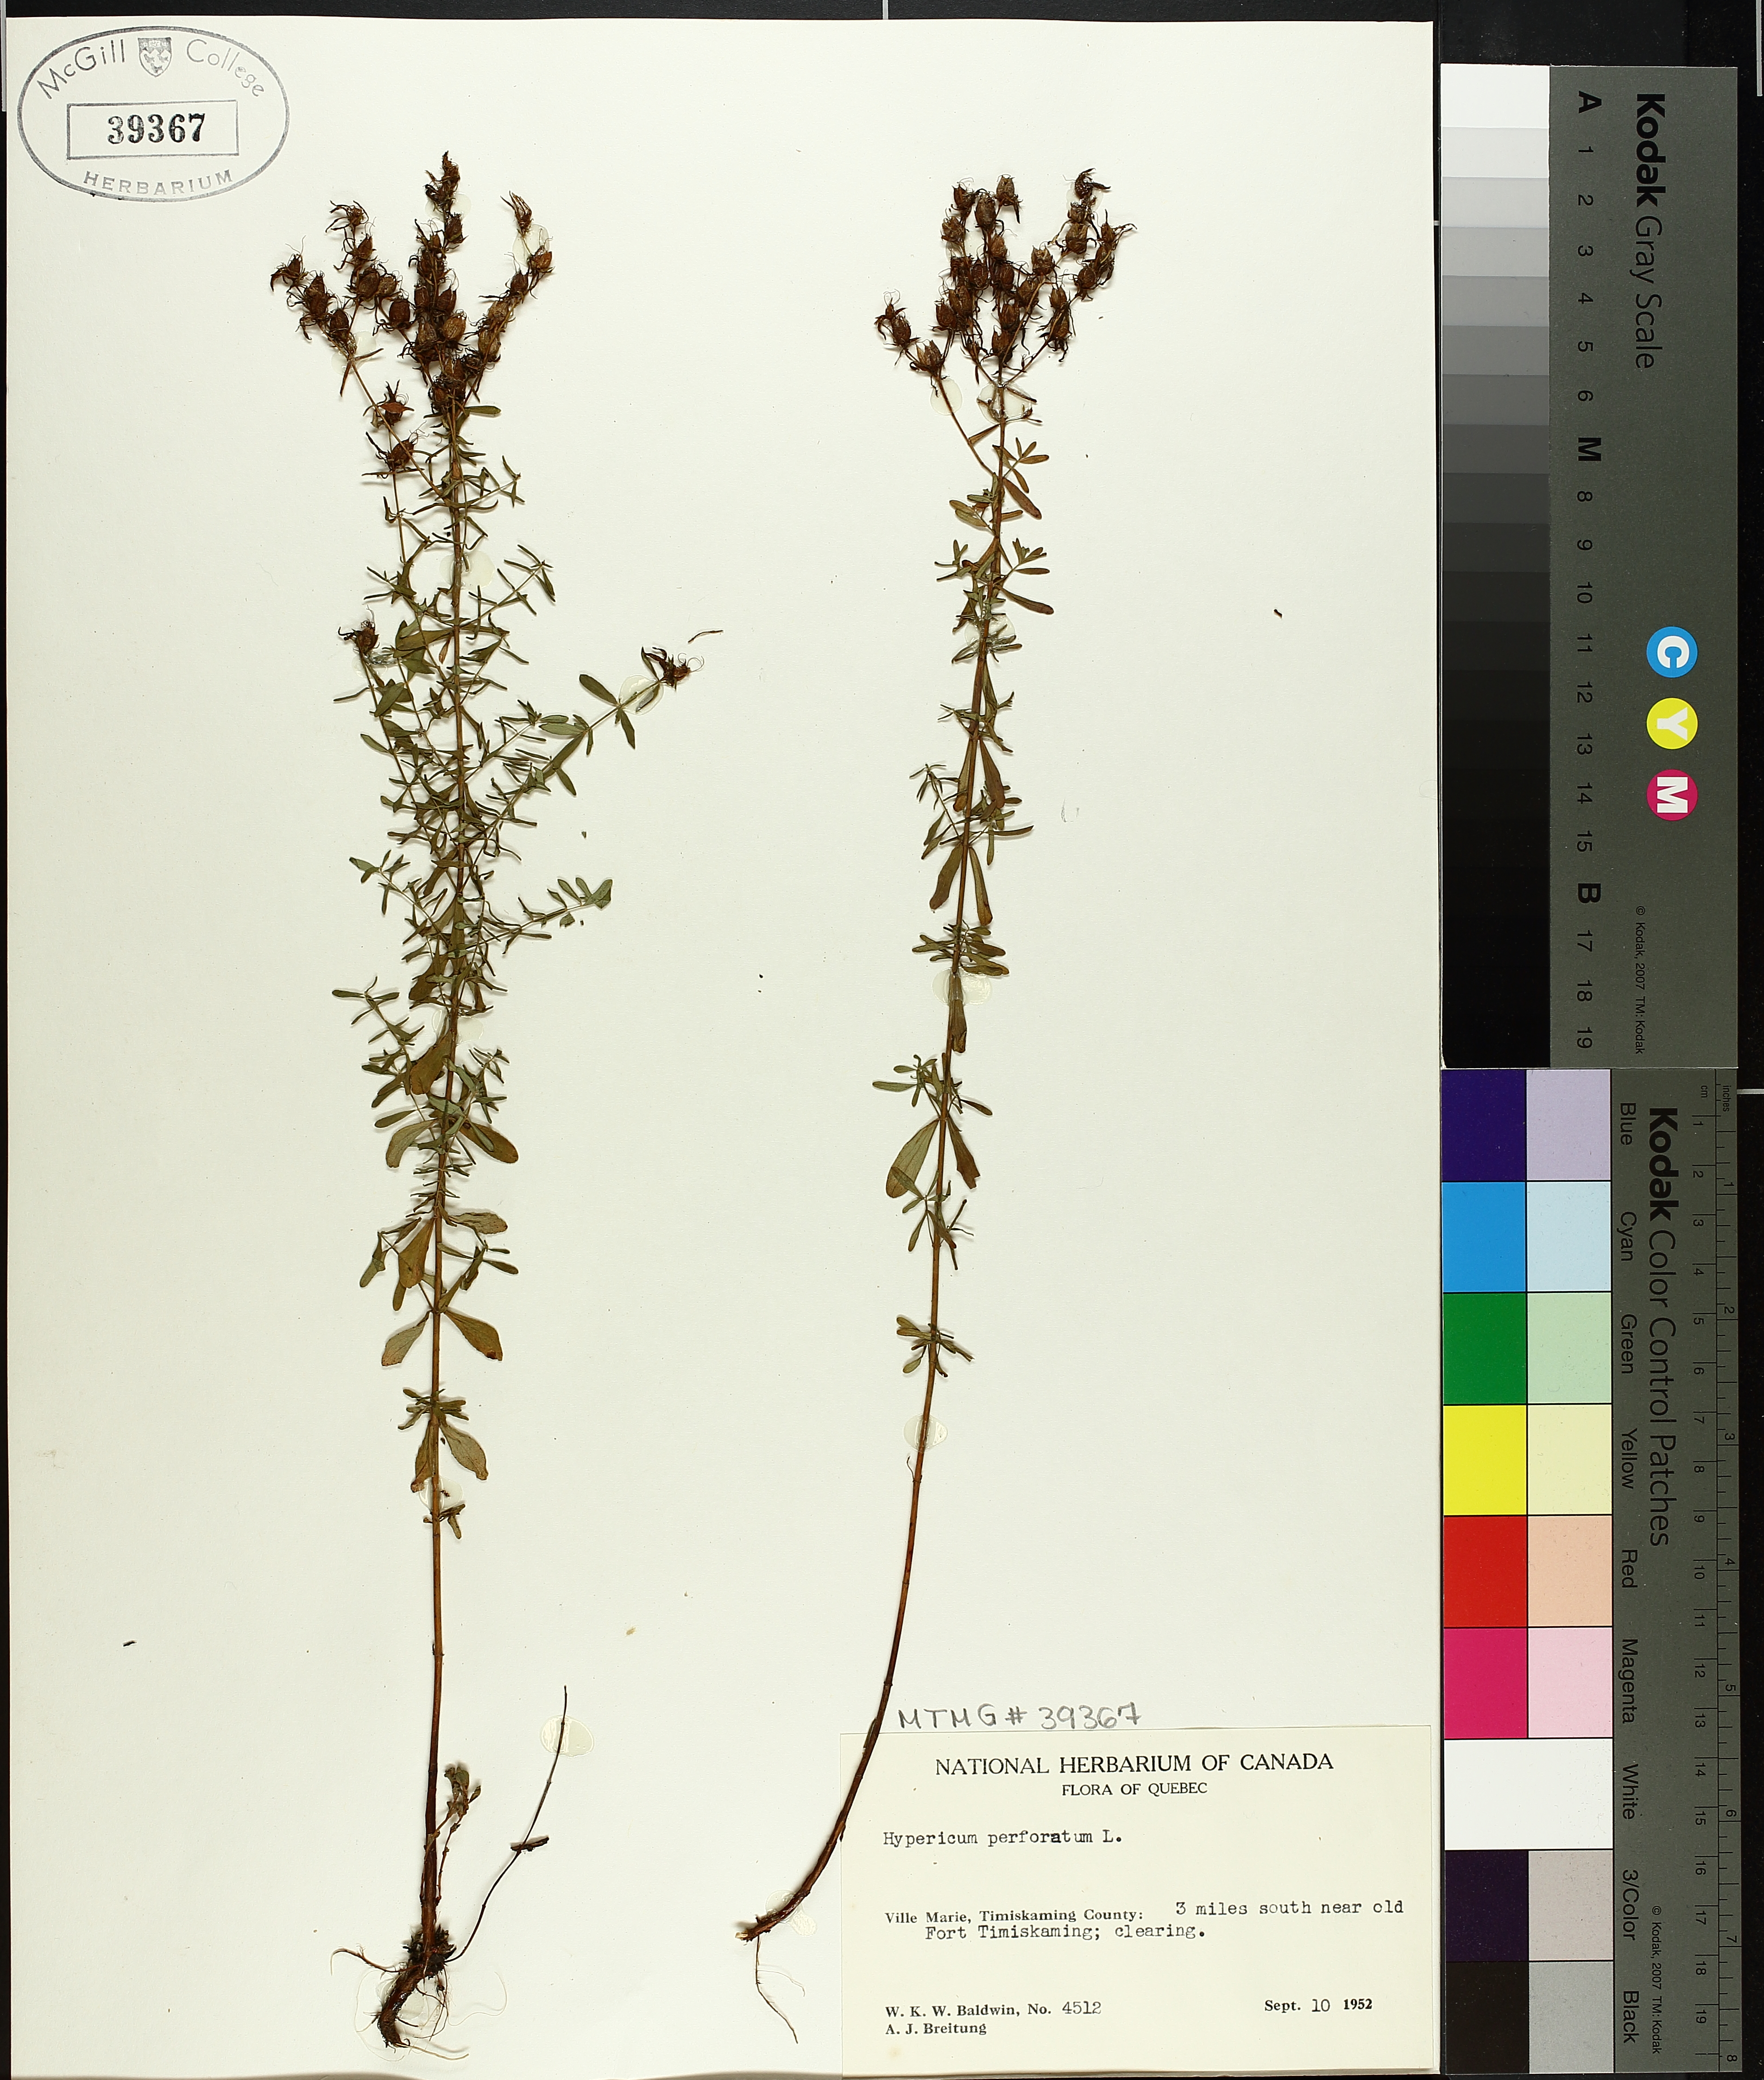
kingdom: Plantae
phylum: Tracheophyta
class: Magnoliopsida
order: Malpighiales
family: Hypericaceae
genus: Hypericum
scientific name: Hypericum perforatum
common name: Common st. johnswort
